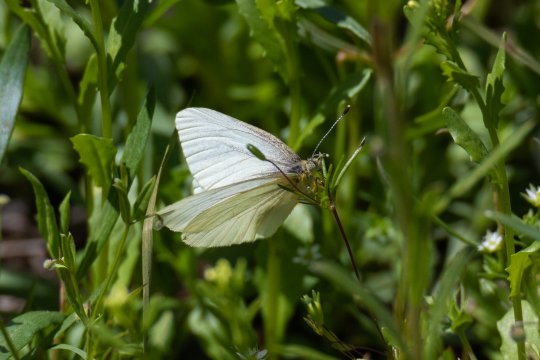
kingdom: Animalia
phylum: Arthropoda
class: Insecta
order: Lepidoptera
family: Pieridae
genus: Pieris
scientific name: Pieris marginalis
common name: Margined White
